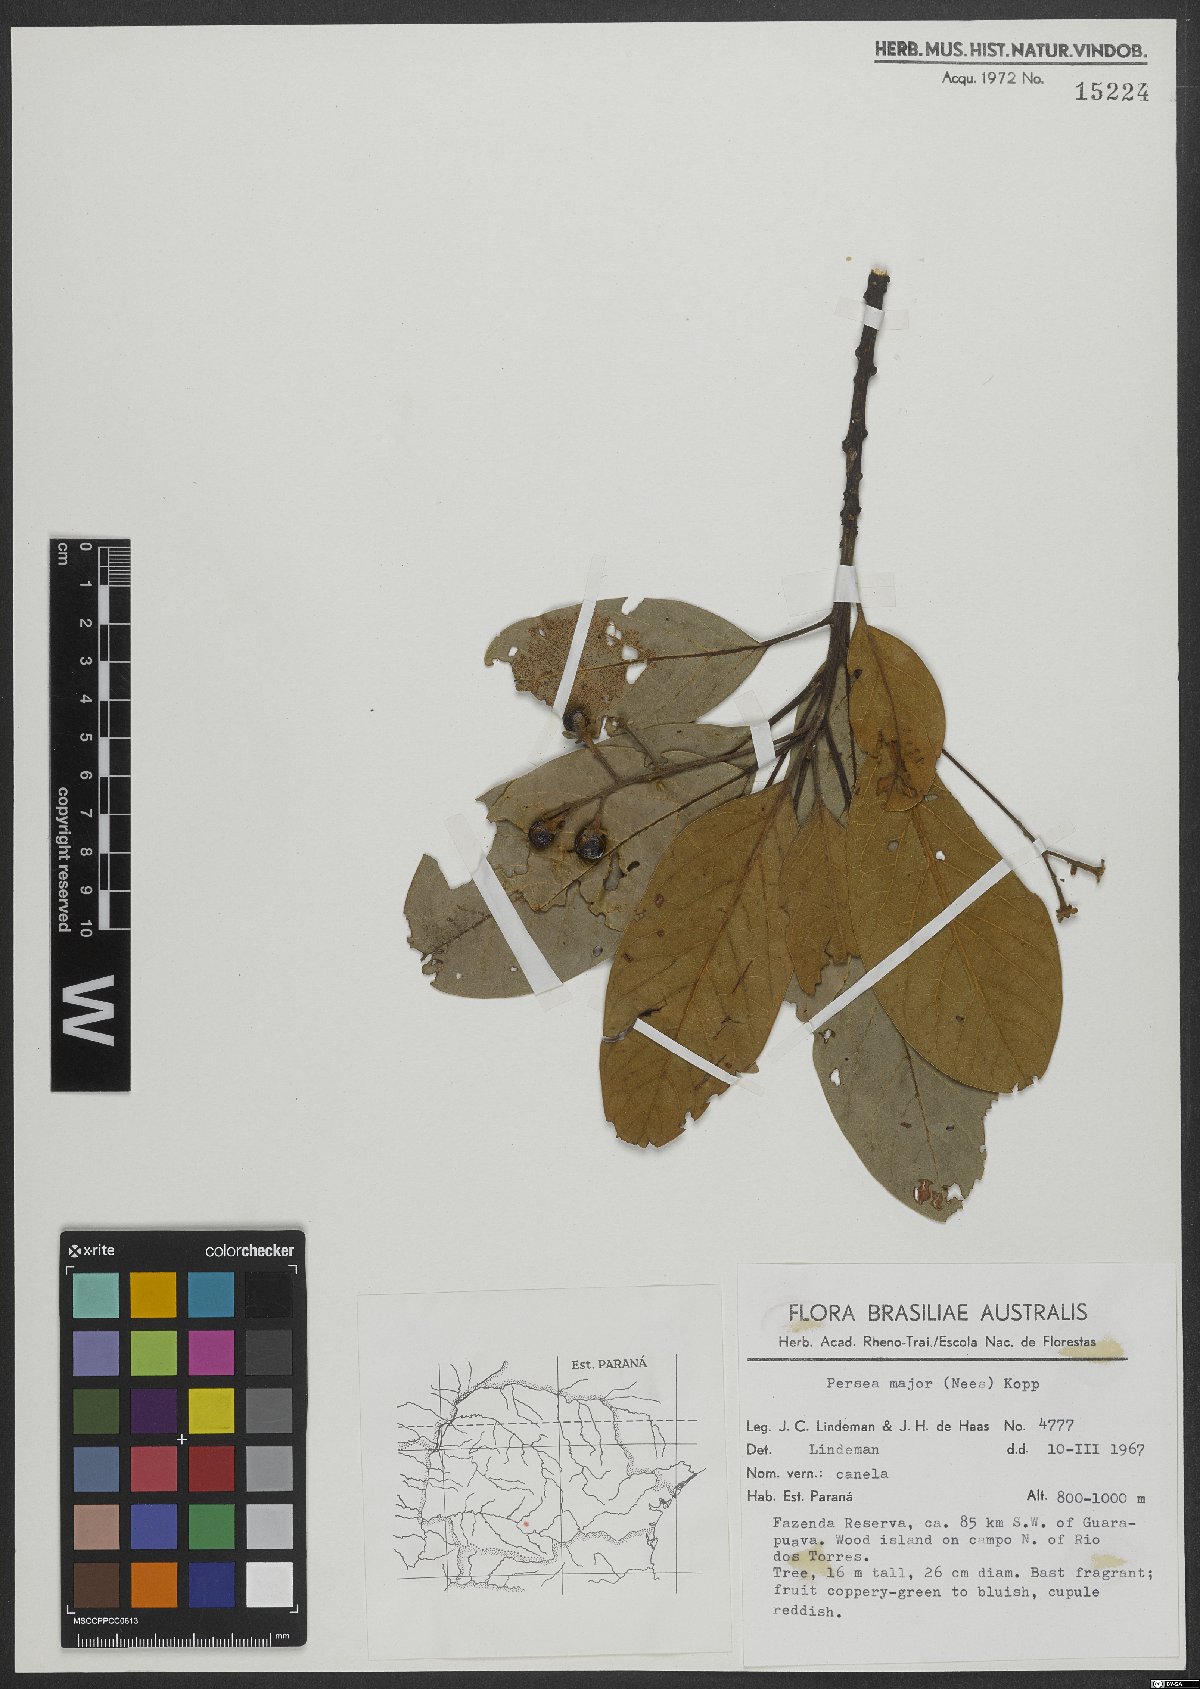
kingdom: Plantae
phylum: Tracheophyta
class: Magnoliopsida
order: Laurales
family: Lauraceae
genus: Persea
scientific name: Persea major
